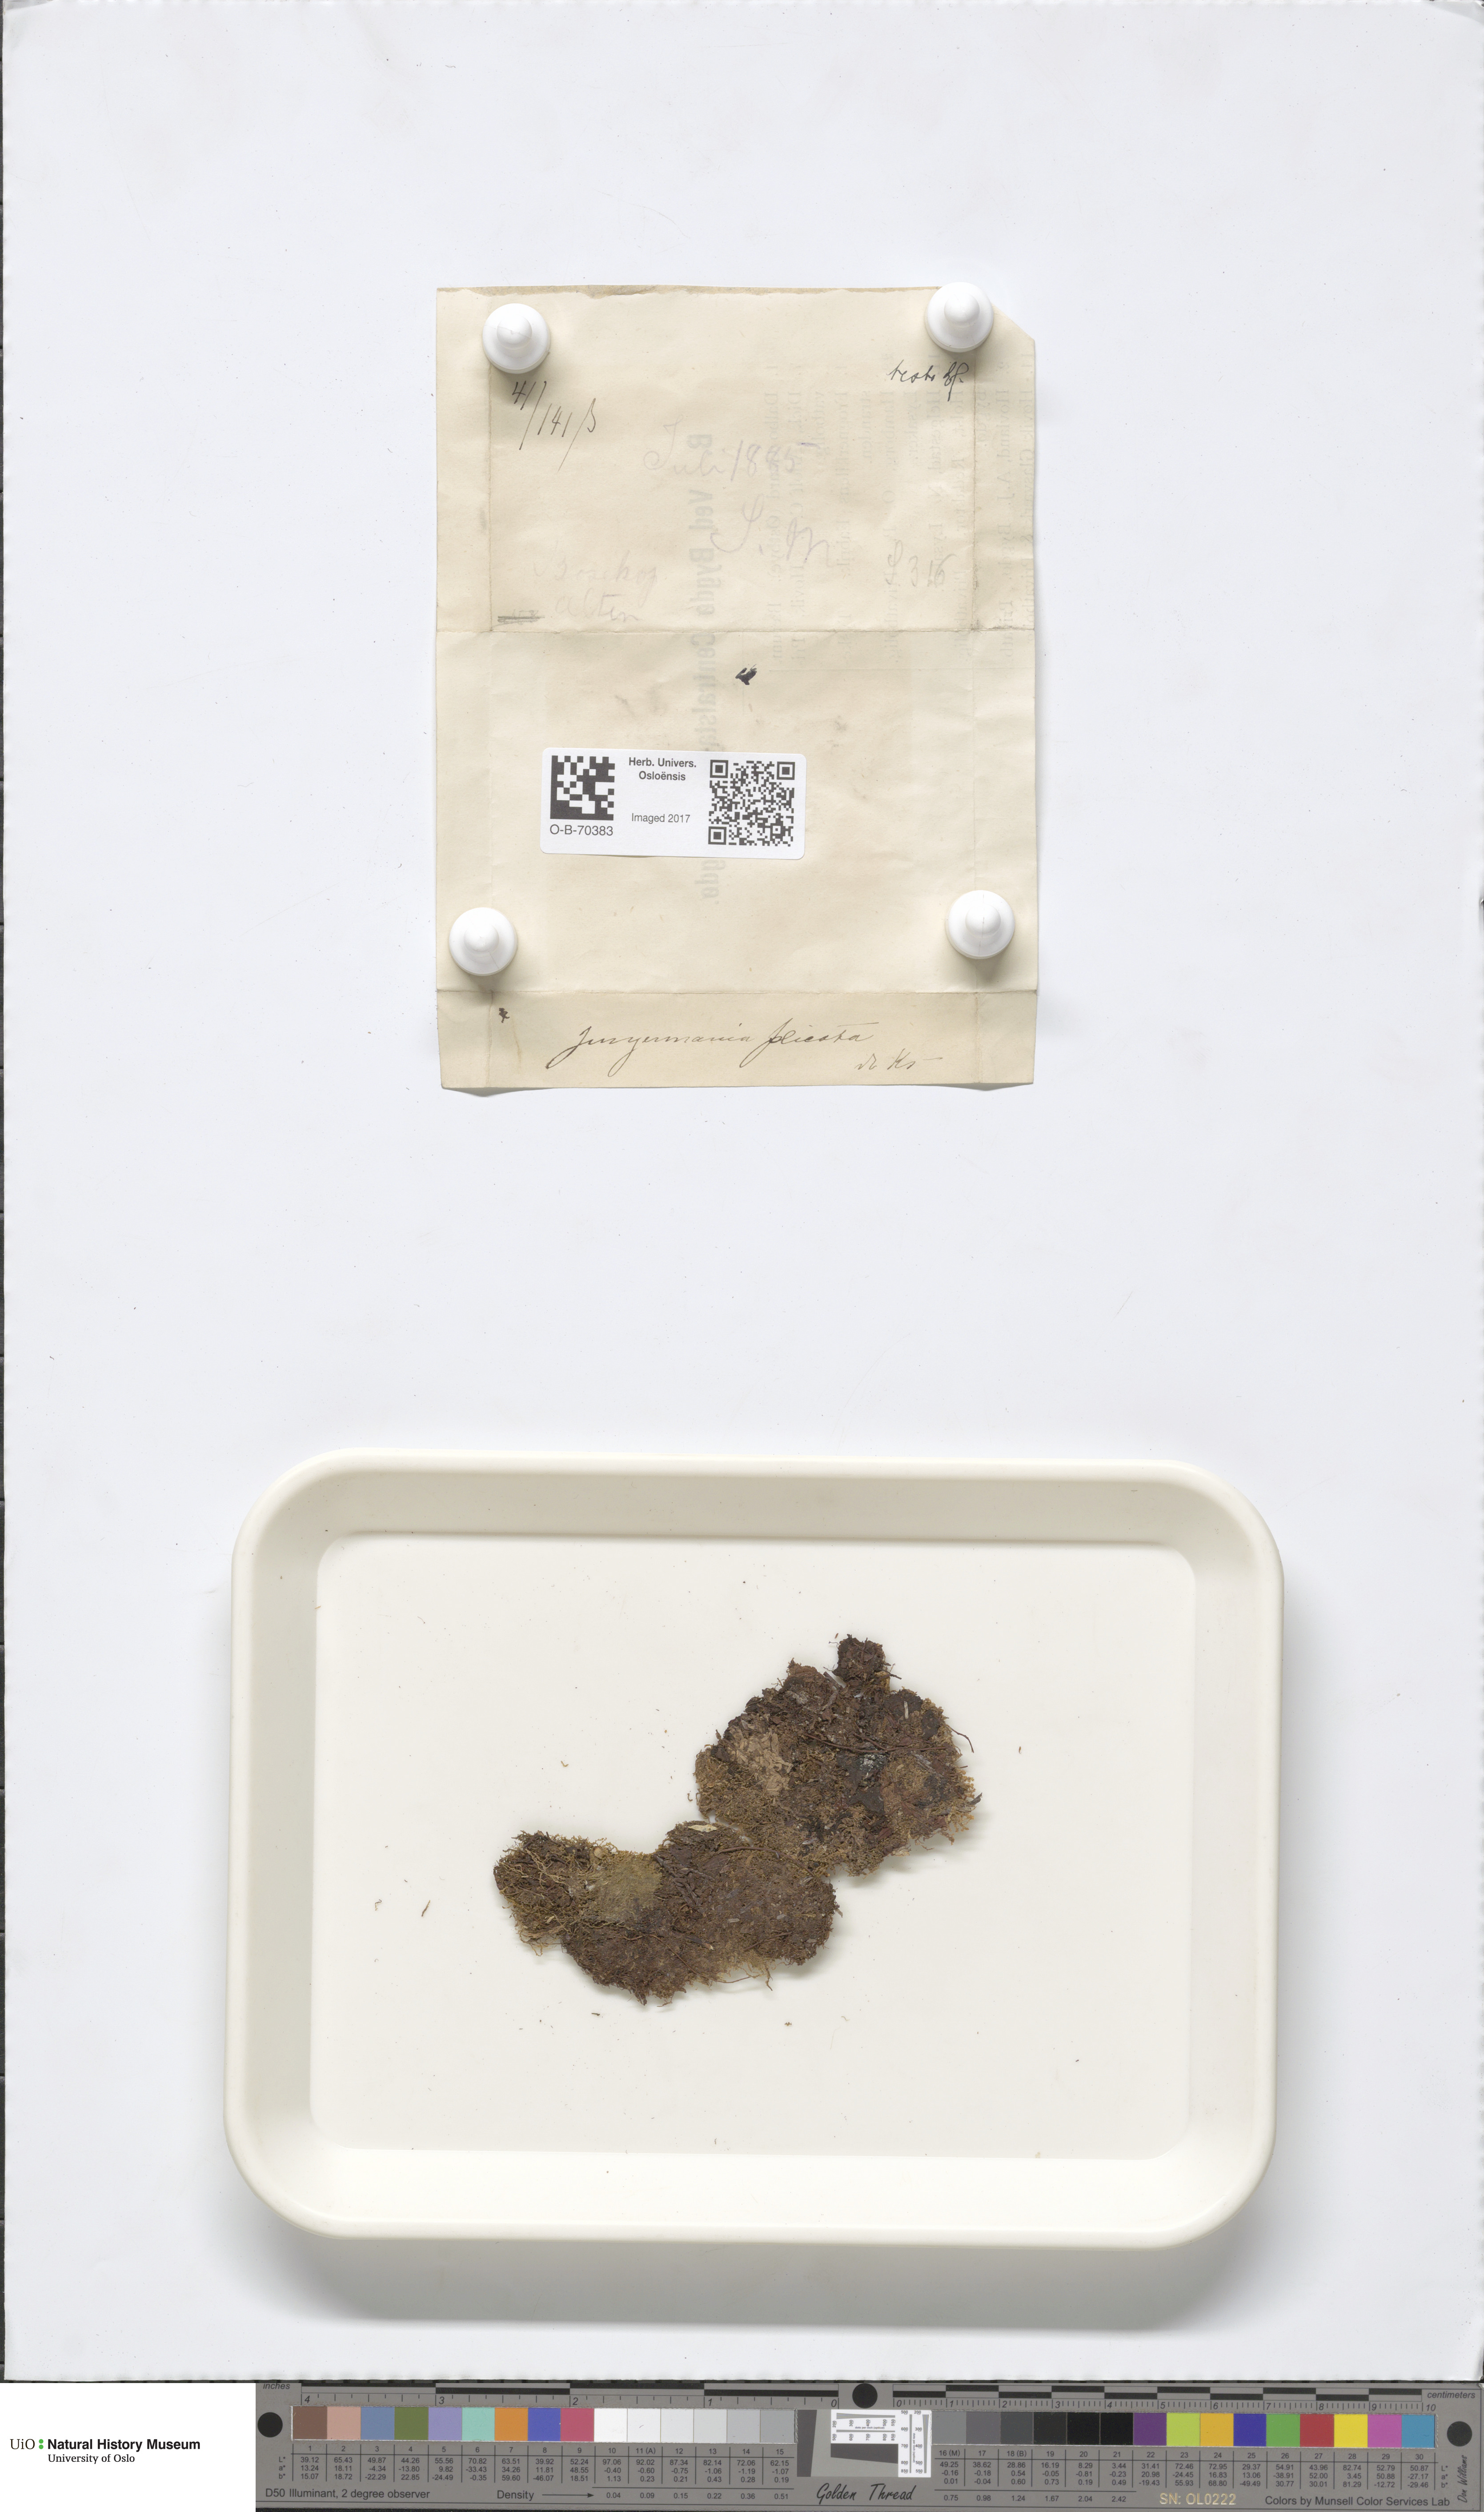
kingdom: Plantae
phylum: Marchantiophyta
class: Jungermanniopsida
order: Jungermanniales
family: Anastrophyllaceae
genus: Schljakovia
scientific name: Schljakovia kunzeana
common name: Kunze's pawwort
